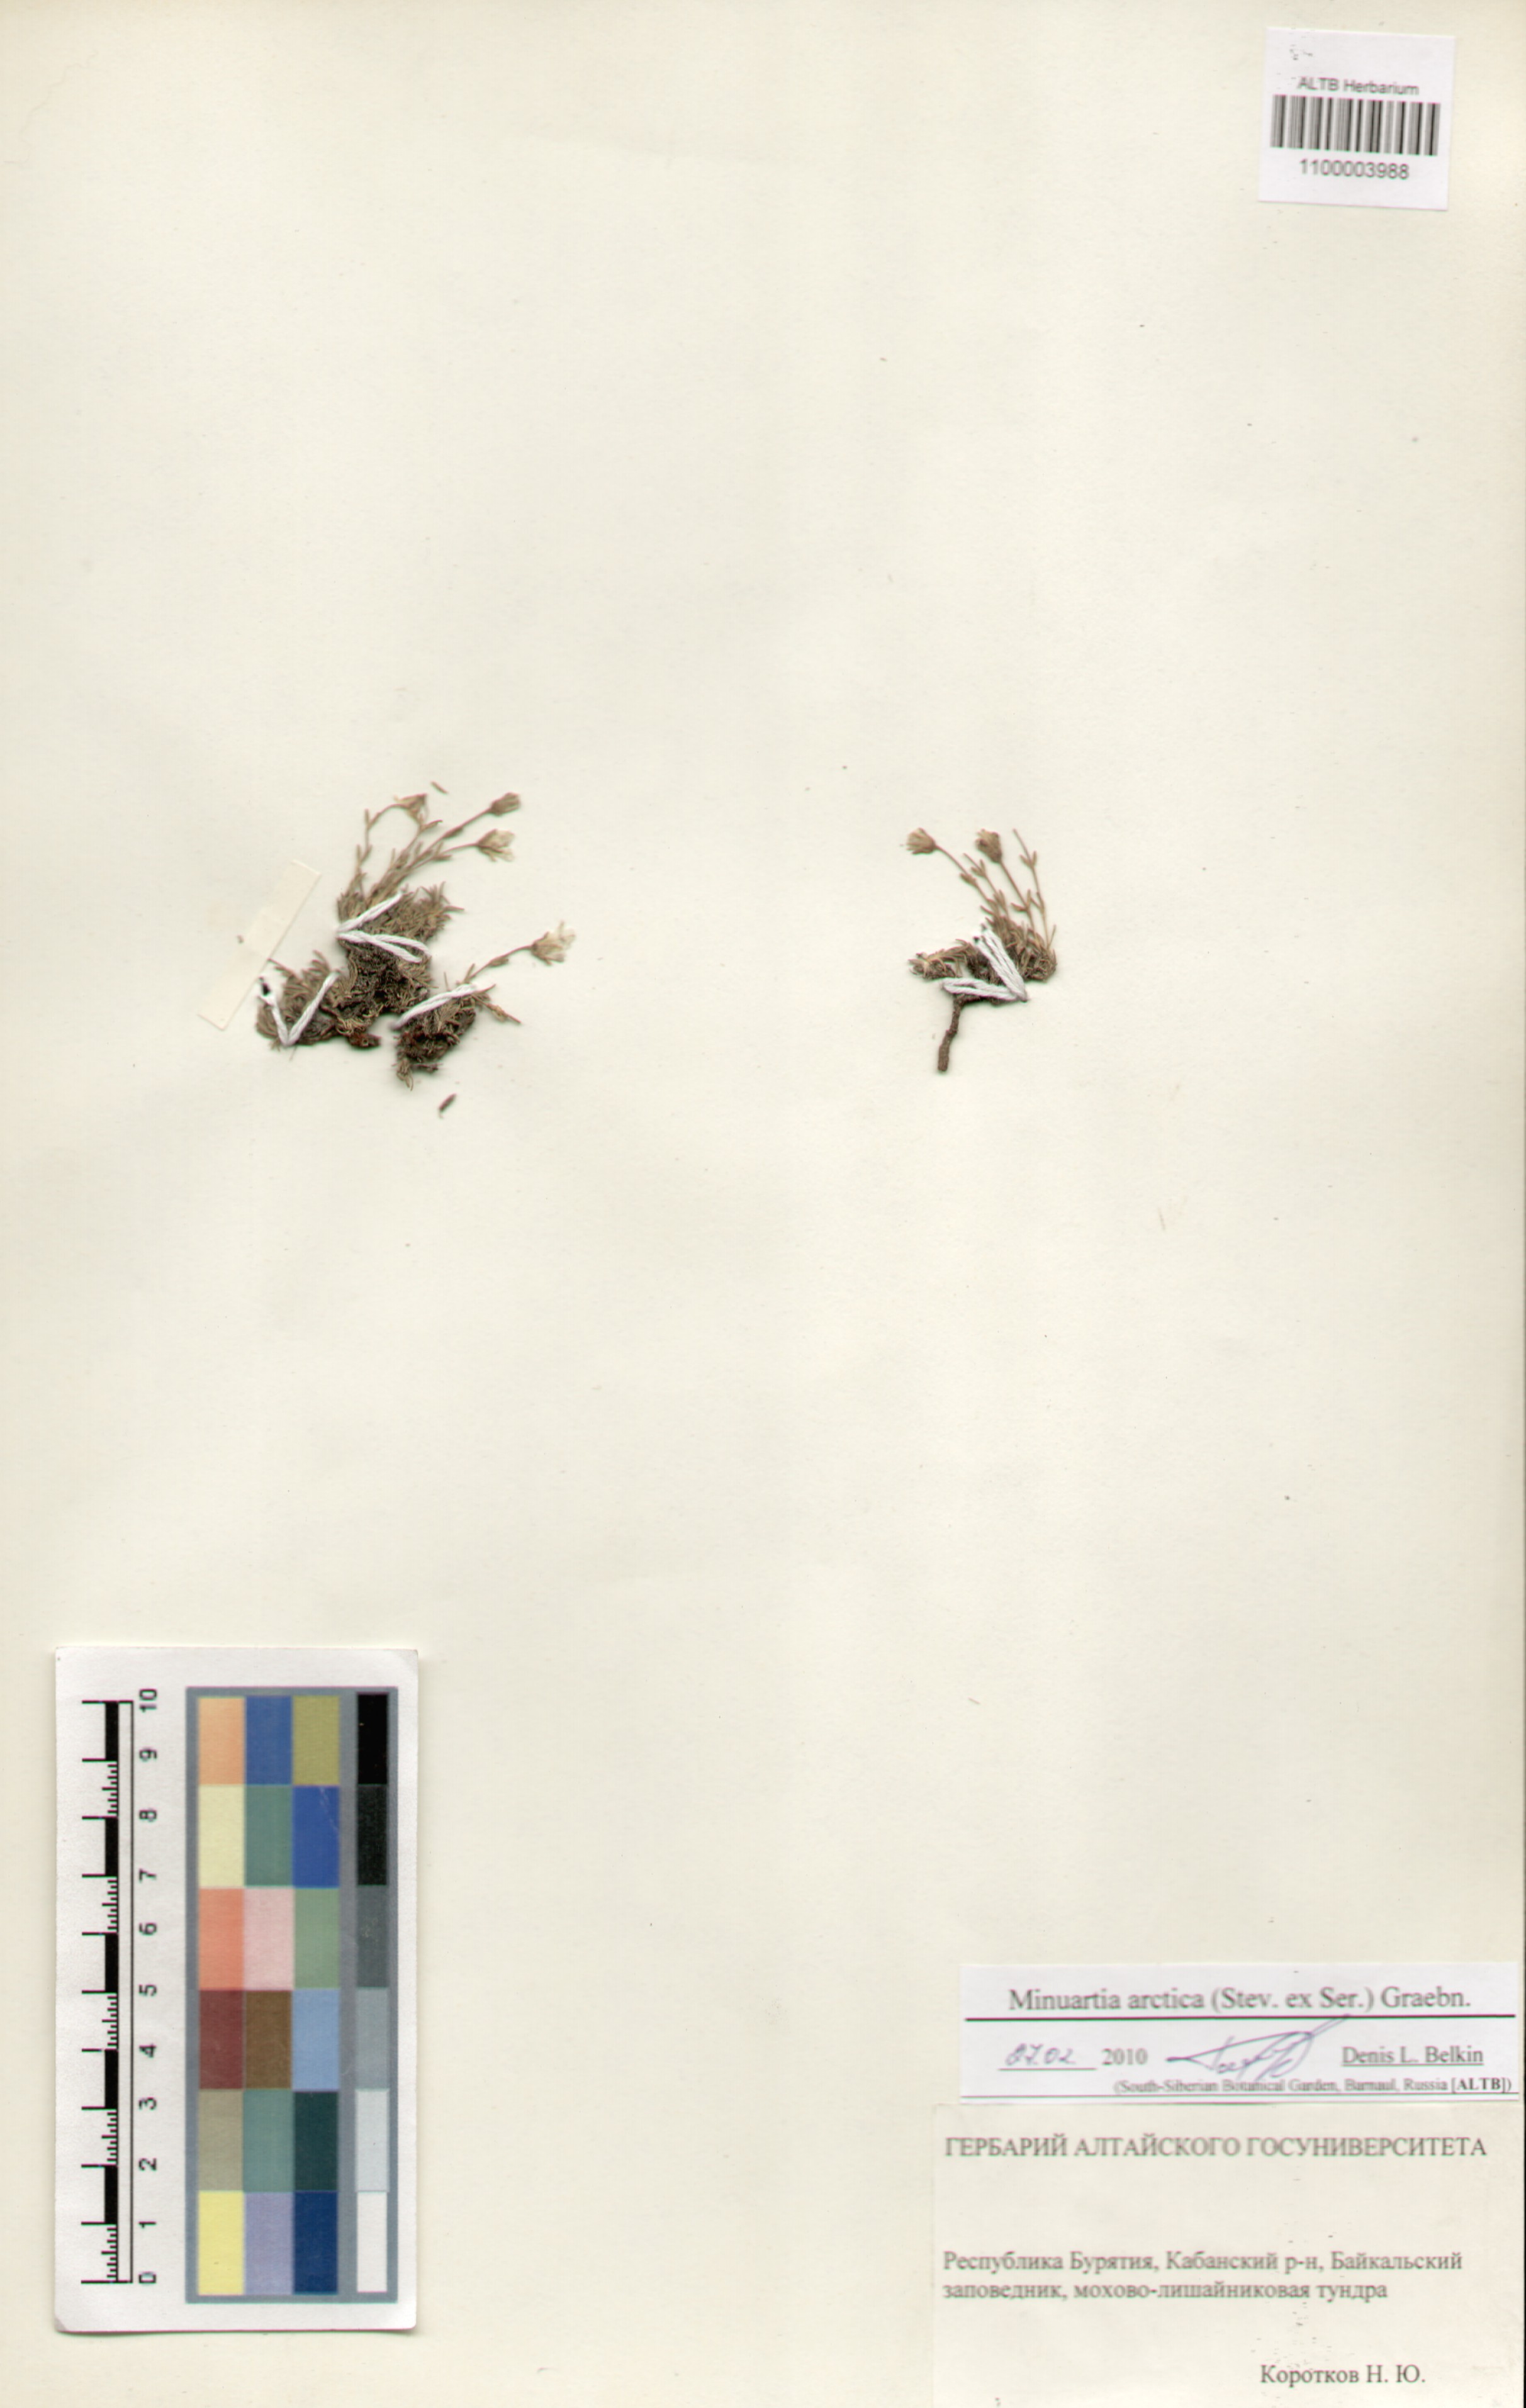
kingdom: Plantae
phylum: Tracheophyta
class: Magnoliopsida
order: Caryophyllales
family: Caryophyllaceae
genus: Cherleria
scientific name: Cherleria arctica
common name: Arctic sandwort
